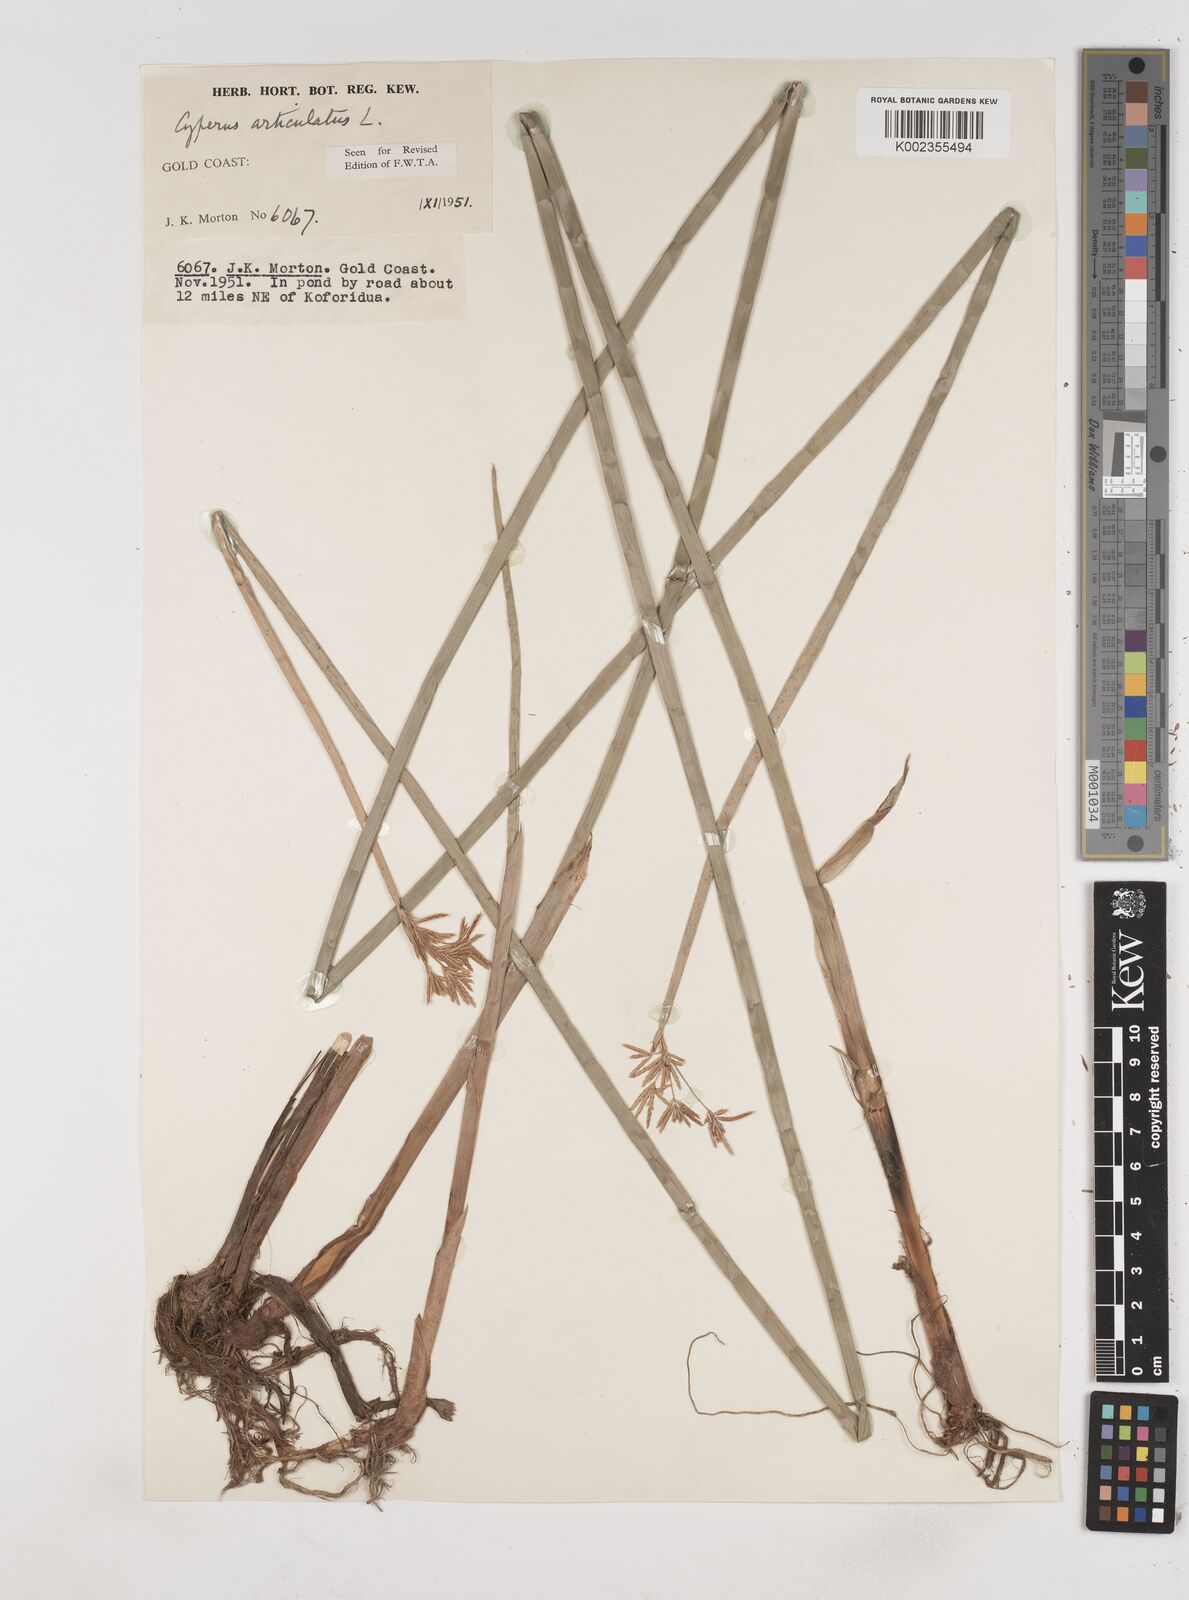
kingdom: Plantae
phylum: Tracheophyta
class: Liliopsida
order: Poales
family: Cyperaceae
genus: Cyperus
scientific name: Cyperus articulatus
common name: Jointed flatsedge
